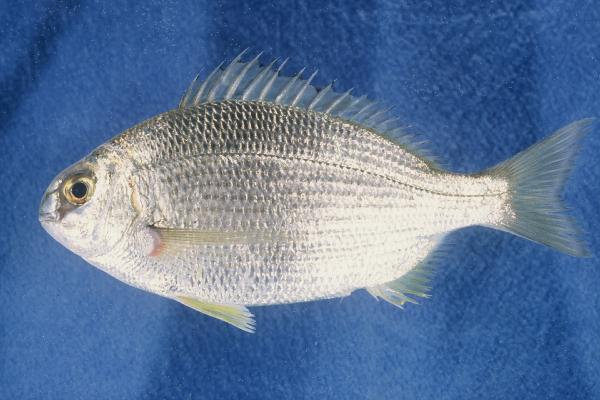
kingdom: Animalia
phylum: Chordata
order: Perciformes
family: Sparidae
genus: Sarpa
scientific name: Sarpa salpa
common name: Salema
